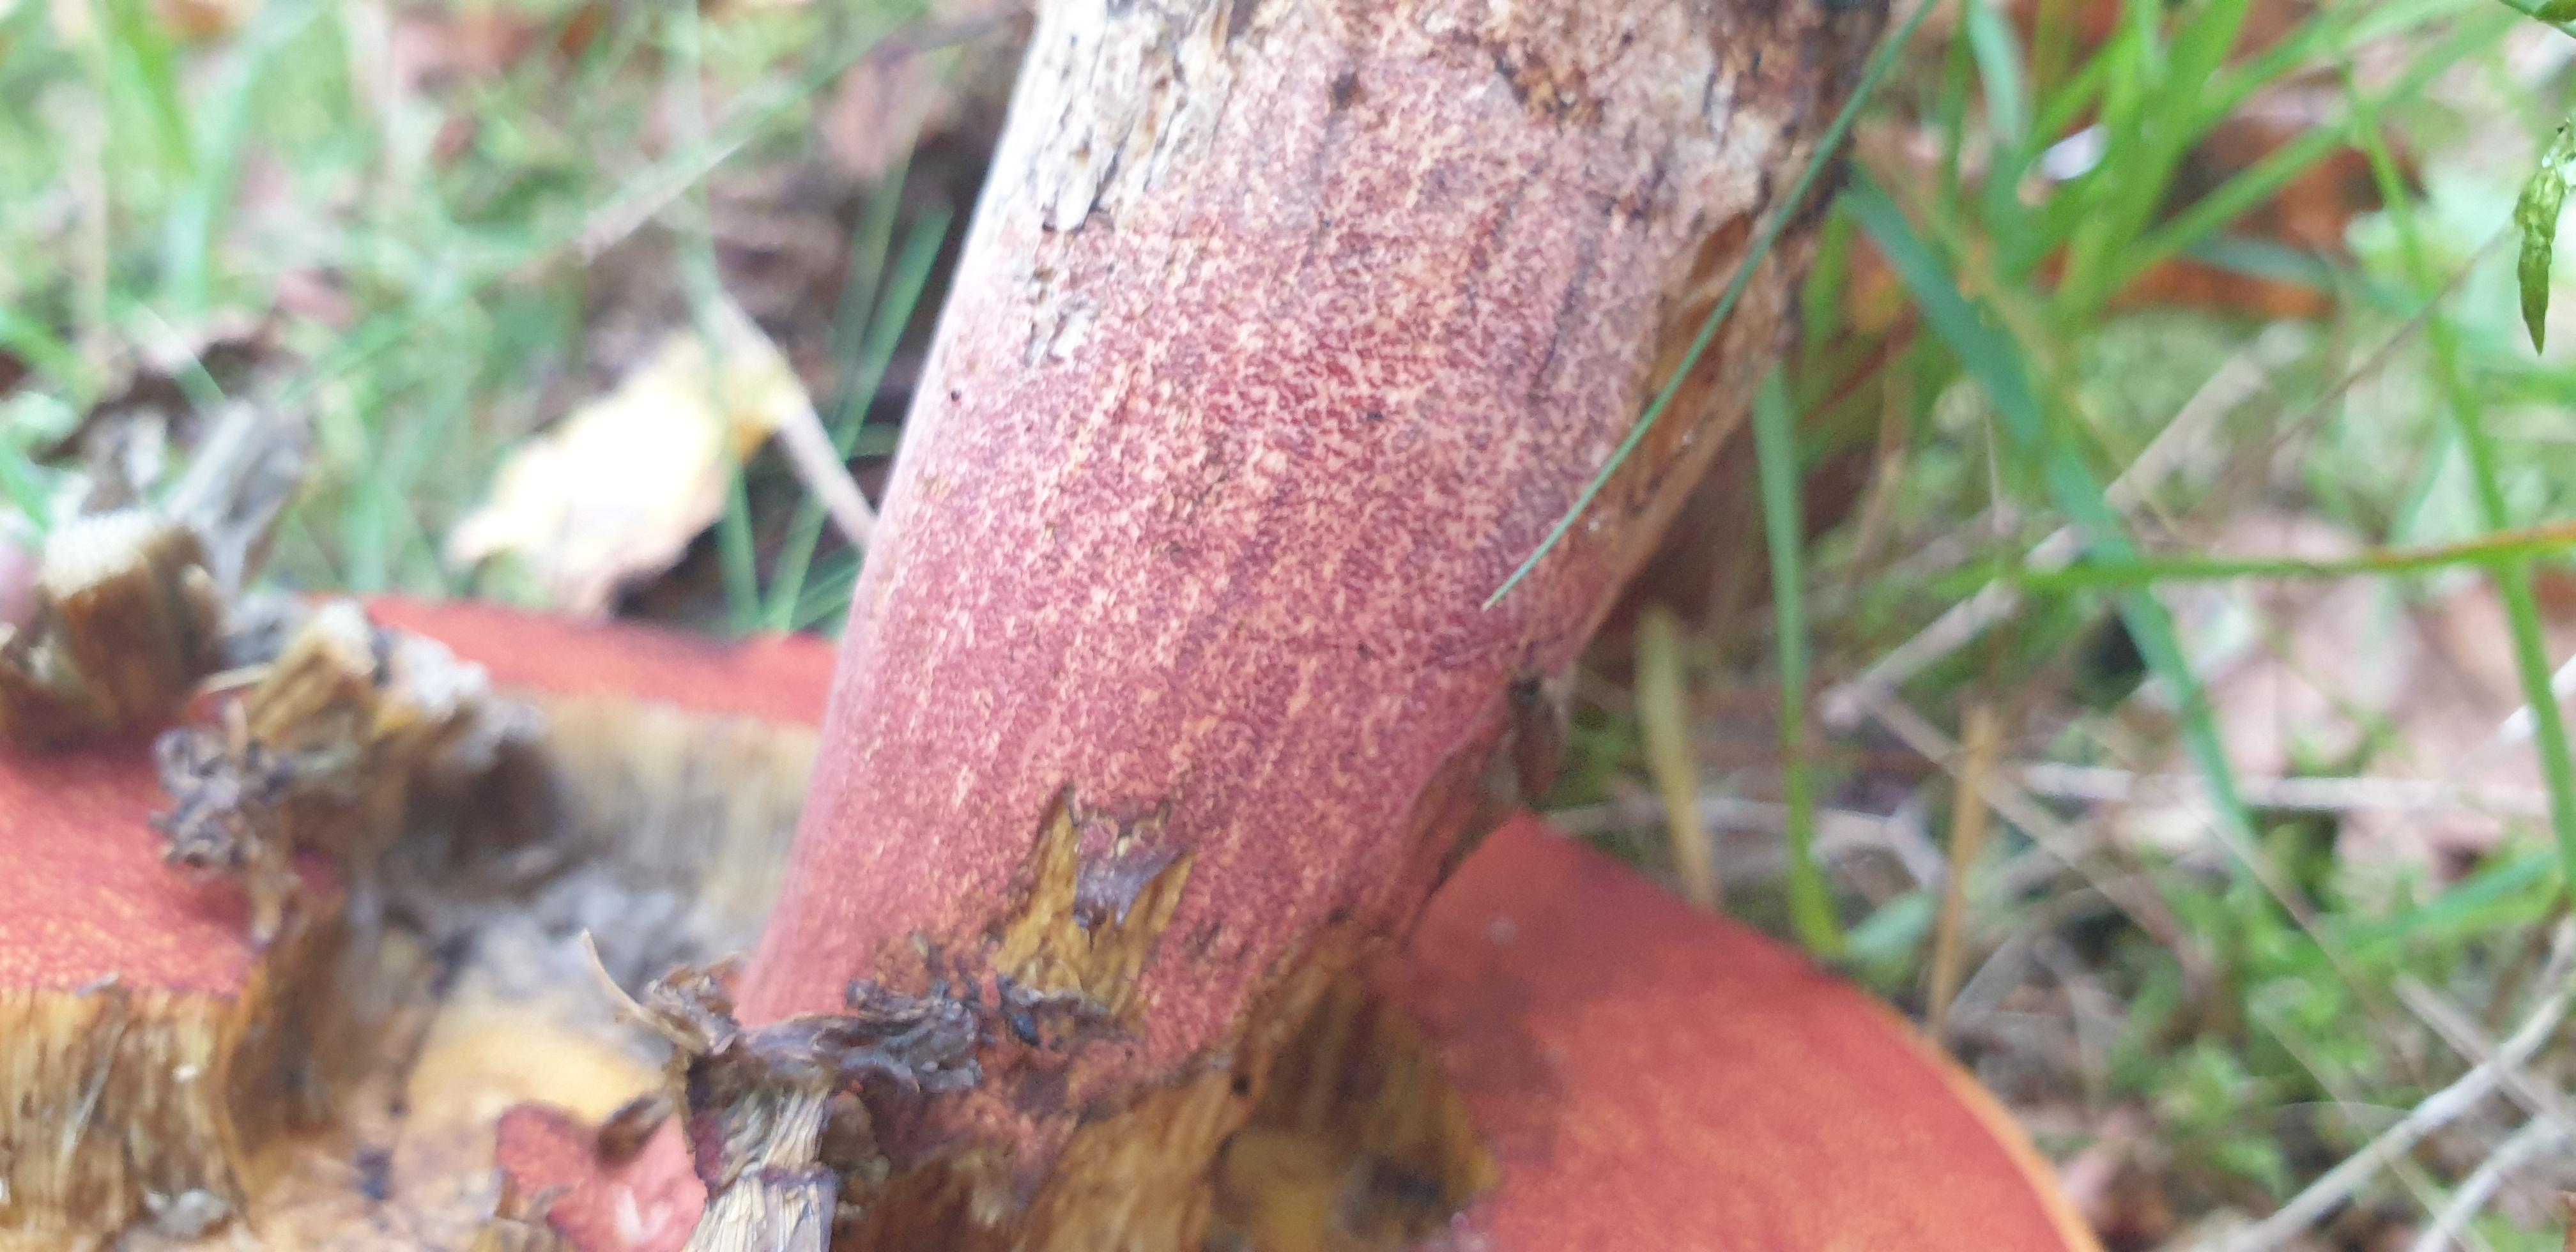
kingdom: Fungi
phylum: Basidiomycota
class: Agaricomycetes
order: Boletales
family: Boletaceae
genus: Neoboletus
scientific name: Neoboletus erythropus
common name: punktstokket indigorørhat
